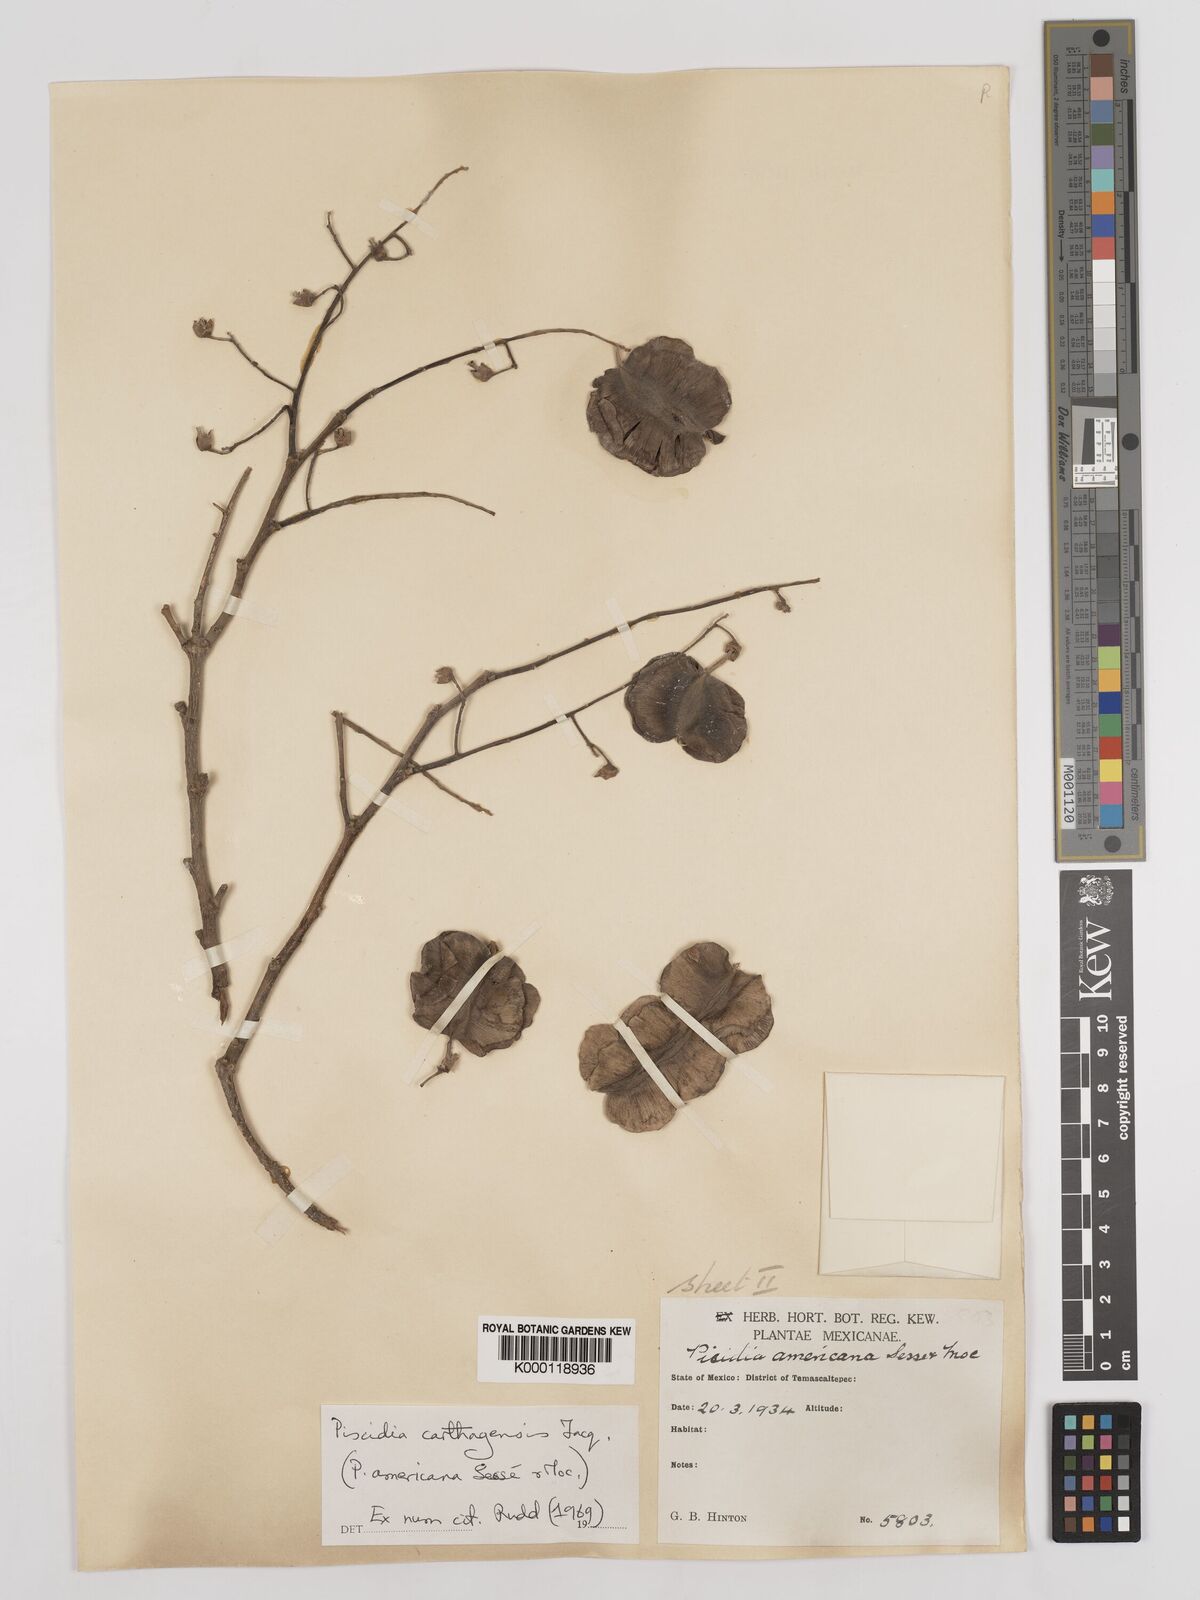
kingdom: Plantae
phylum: Tracheophyta
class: Magnoliopsida
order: Fabales
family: Fabaceae
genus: Piscidia
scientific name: Piscidia carthagenensis
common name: Stinkwood
